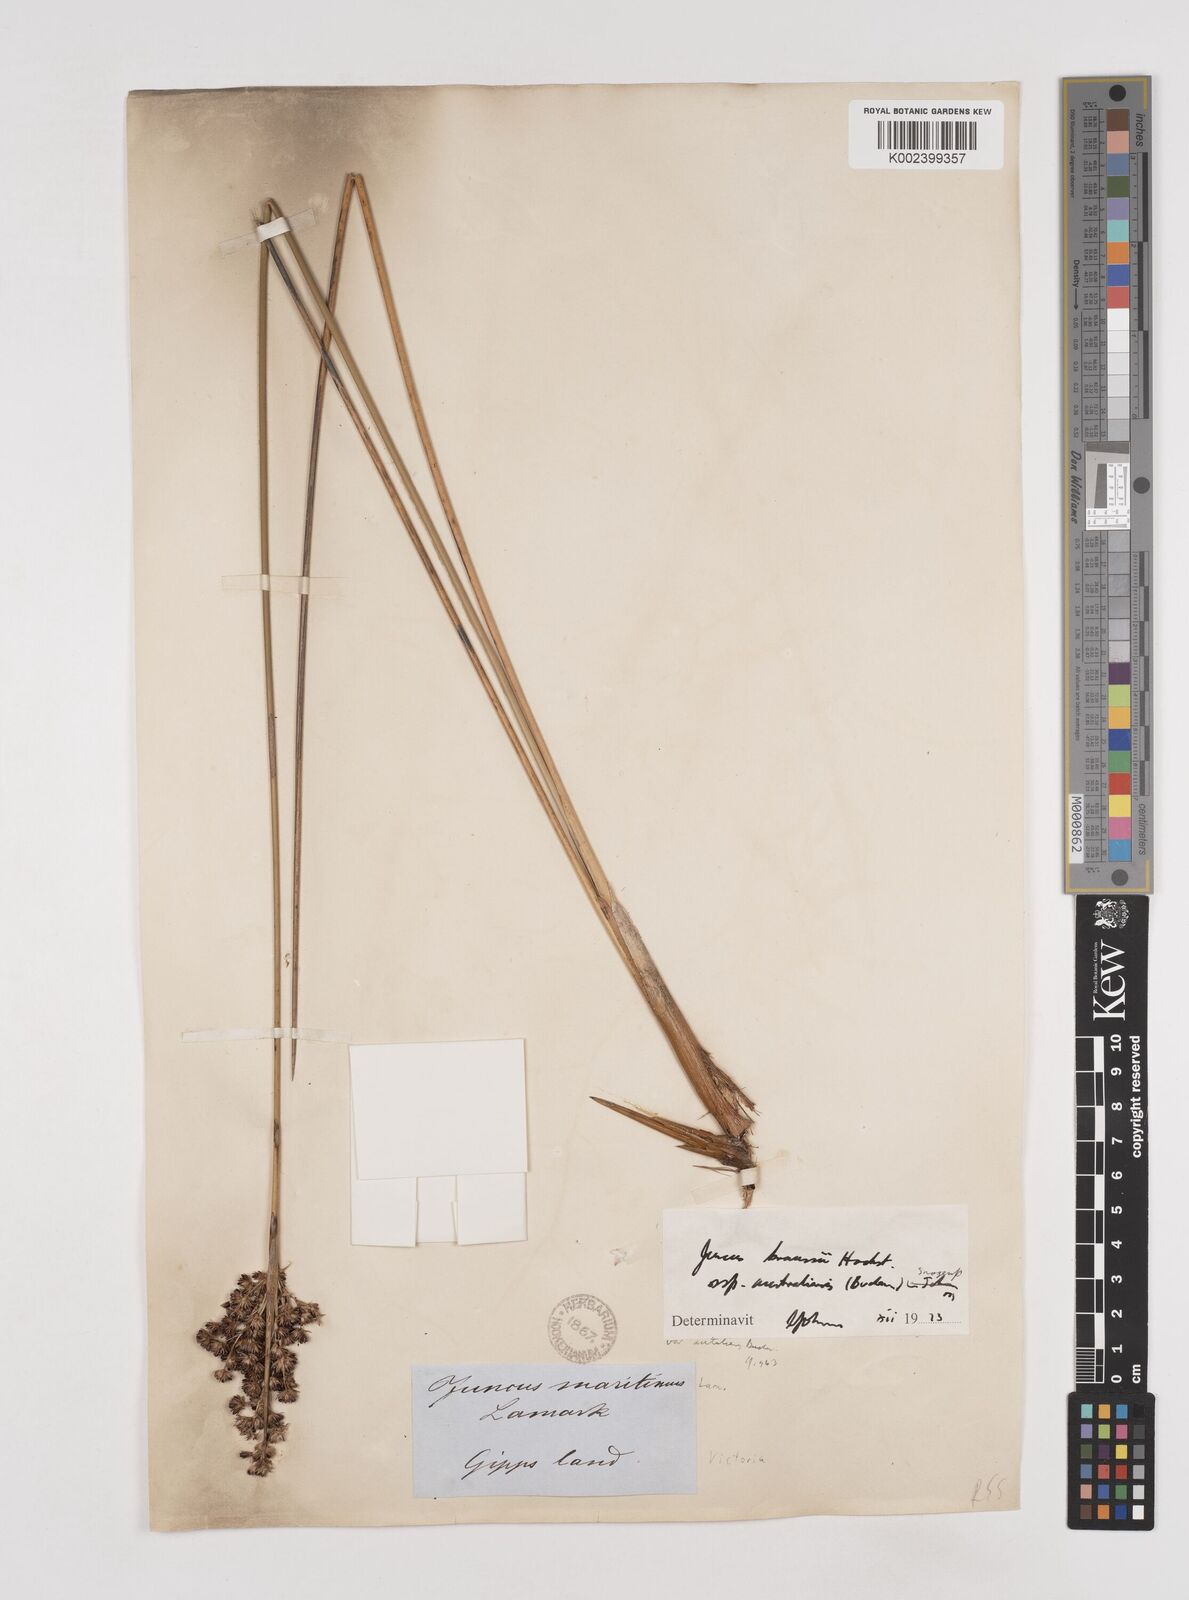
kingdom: Plantae
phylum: Tracheophyta
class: Liliopsida
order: Poales
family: Juncaceae
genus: Juncus
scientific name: Juncus kraussii
